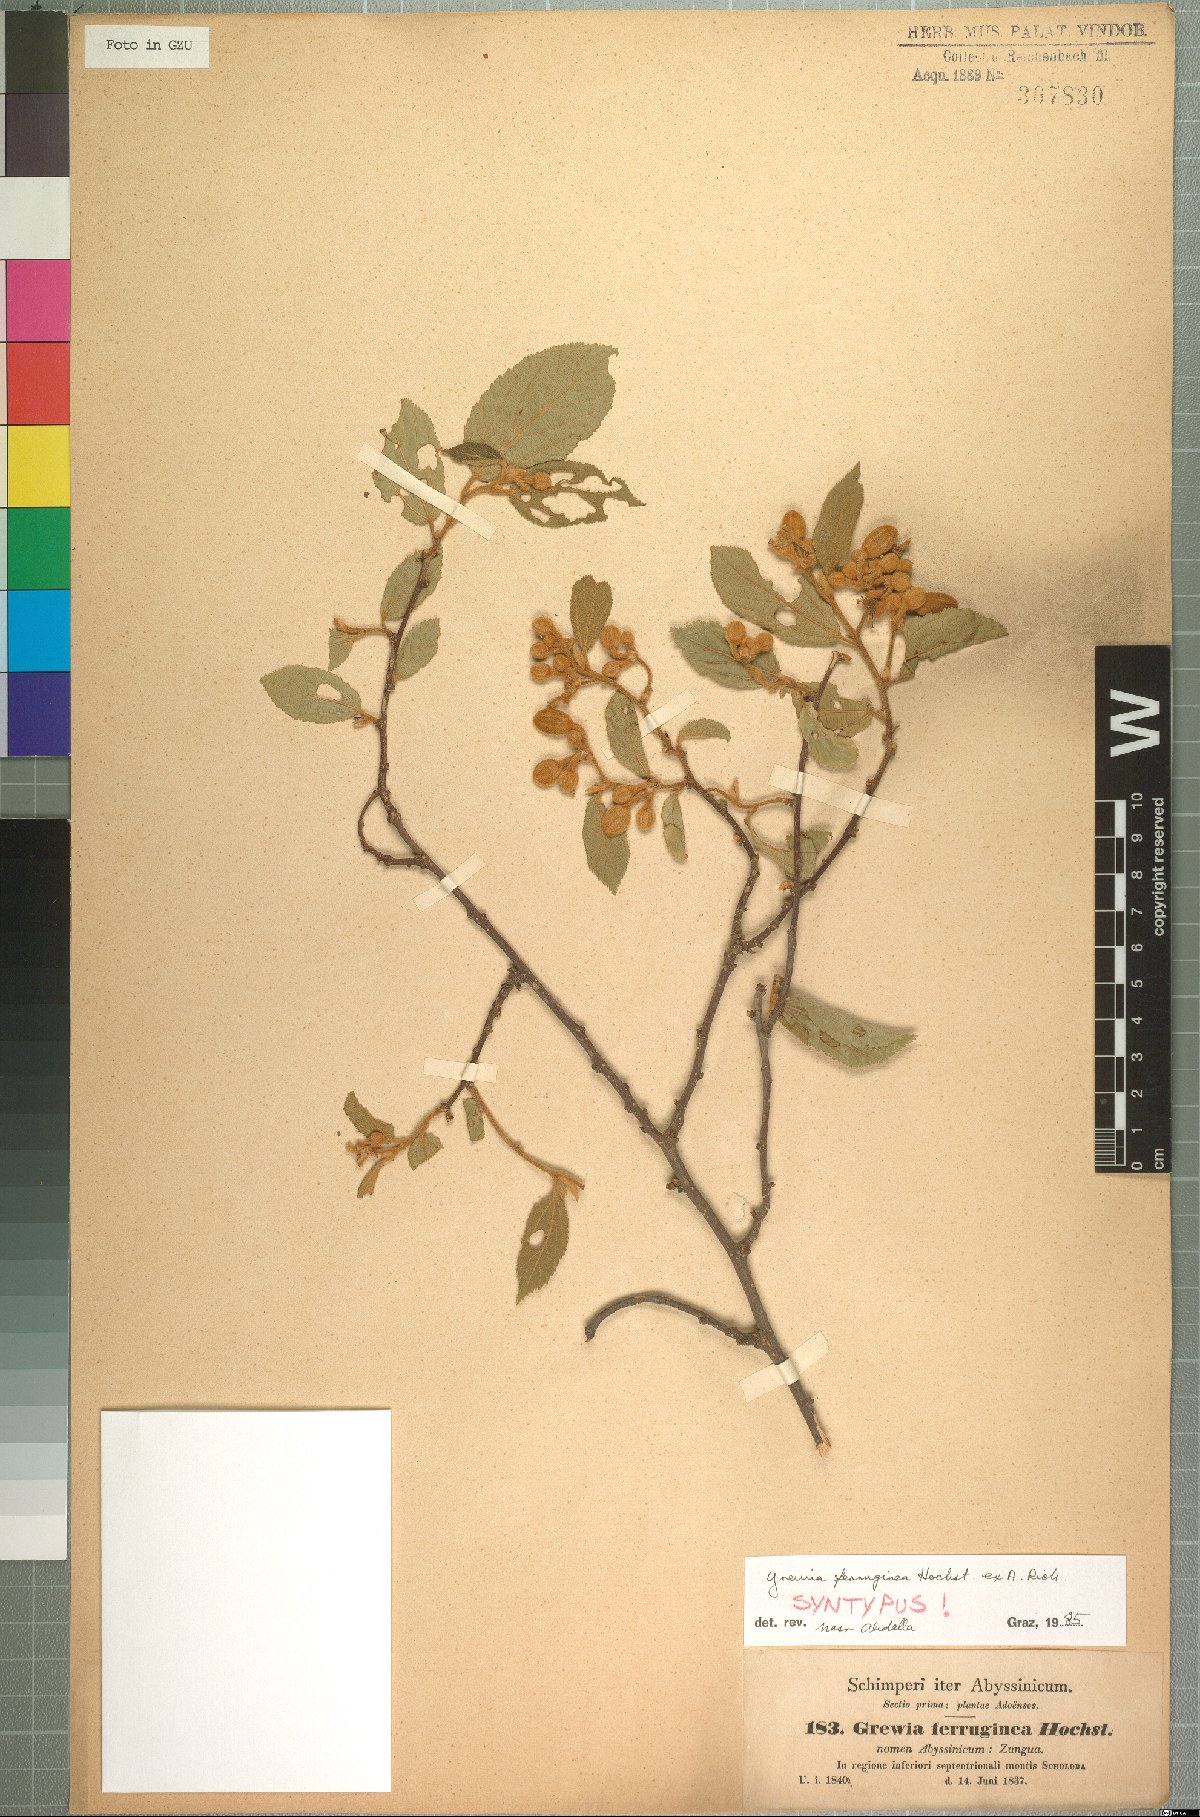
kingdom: Plantae
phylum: Tracheophyta
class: Magnoliopsida
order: Malvales
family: Malvaceae
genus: Grewia
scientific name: Grewia ferruginea
